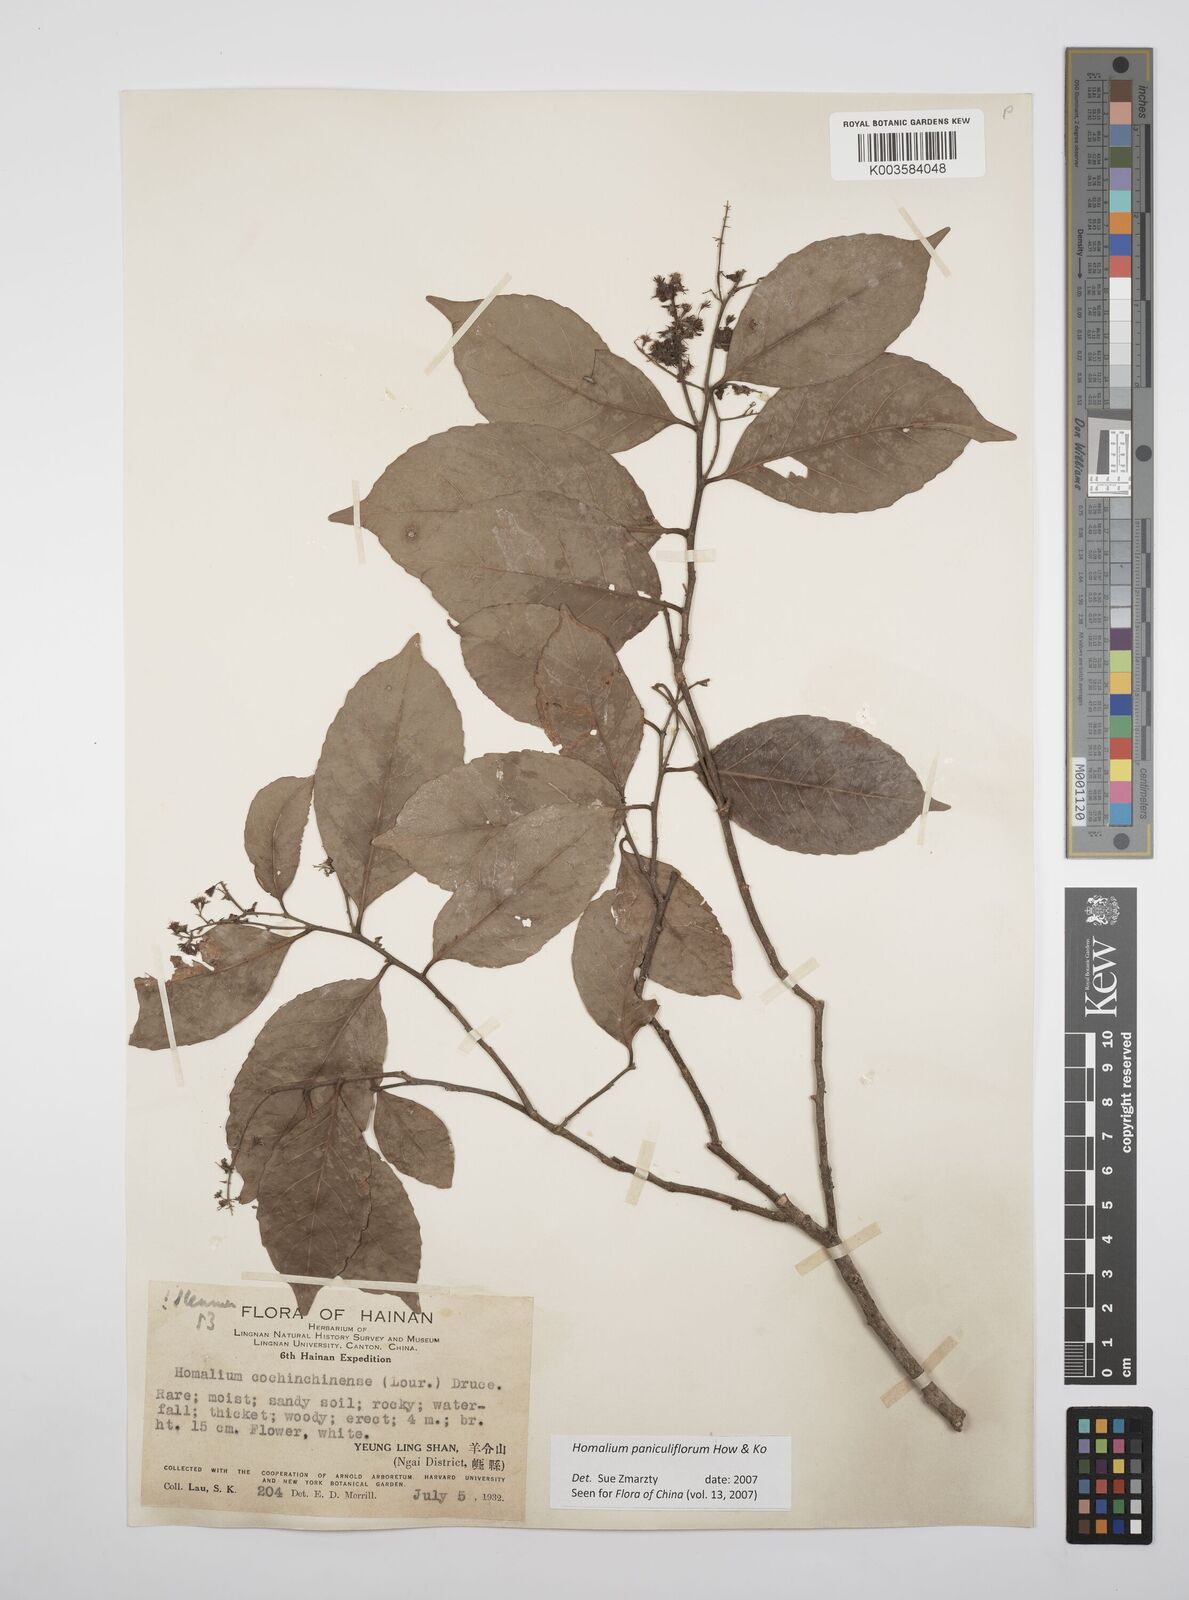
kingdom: Plantae
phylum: Tracheophyta
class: Magnoliopsida
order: Malpighiales
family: Salicaceae
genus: Homalium
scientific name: Homalium paniculiflorum
